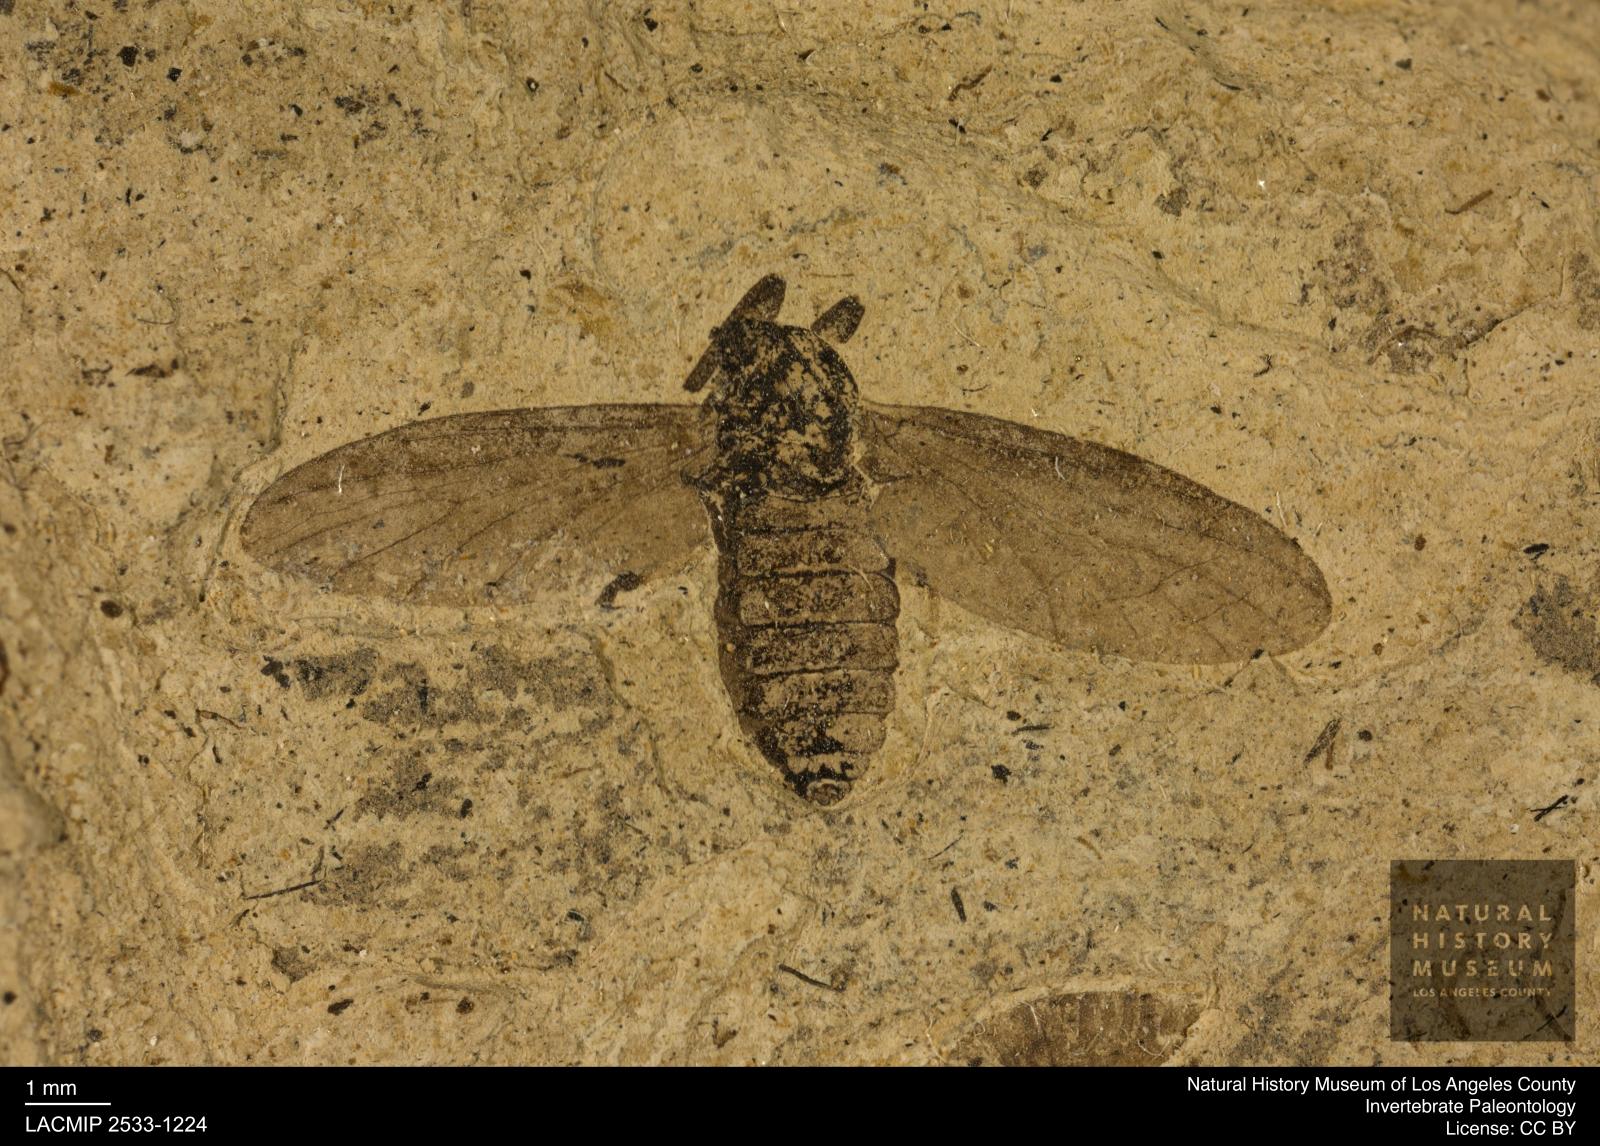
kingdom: Animalia
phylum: Arthropoda
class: Insecta
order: Diptera
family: Bibionidae
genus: Plecia
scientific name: Plecia stygia
